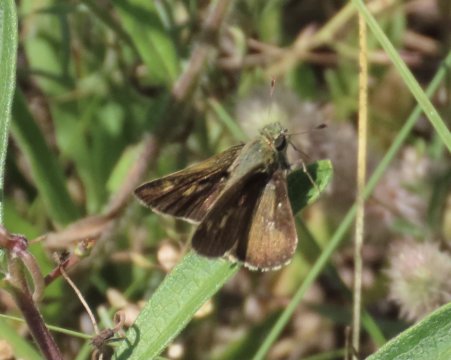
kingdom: Animalia
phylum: Arthropoda
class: Insecta
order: Lepidoptera
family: Hesperiidae
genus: Polites
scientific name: Polites egeremet
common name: Northern Broken-Dash
